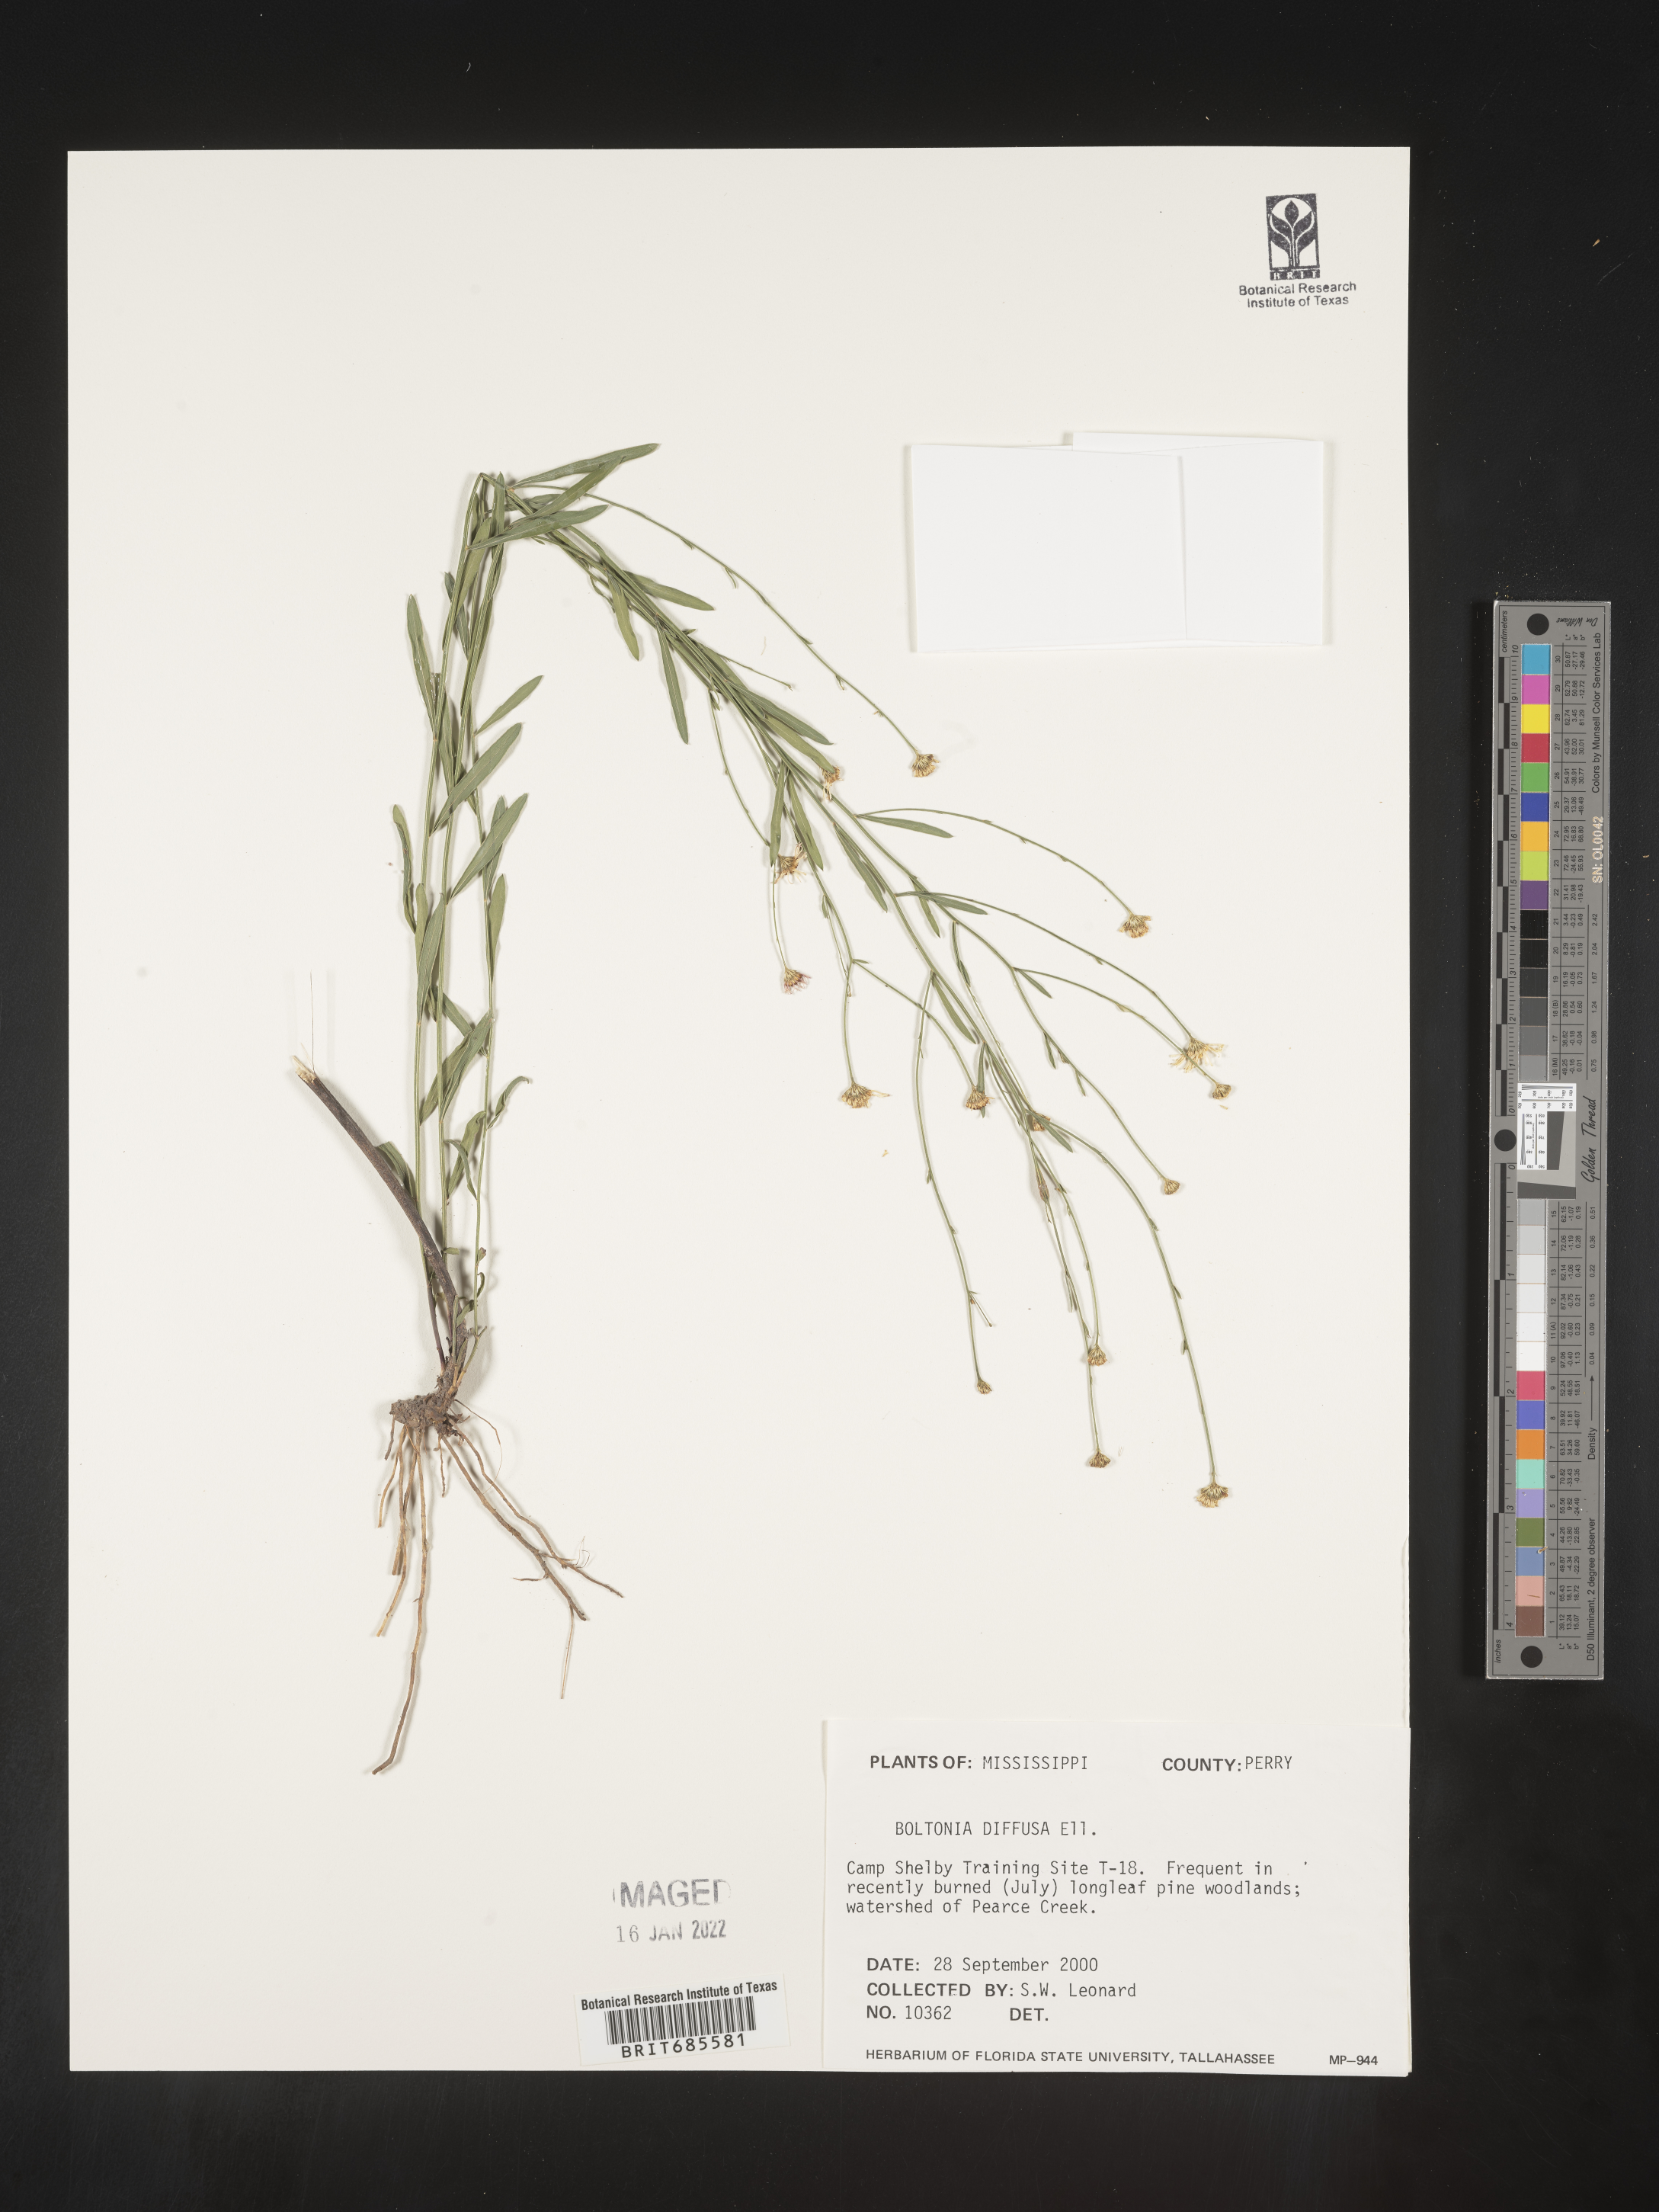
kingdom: Plantae
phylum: Tracheophyta
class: Magnoliopsida
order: Asterales
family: Asteraceae
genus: Boltonia
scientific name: Boltonia diffusa
